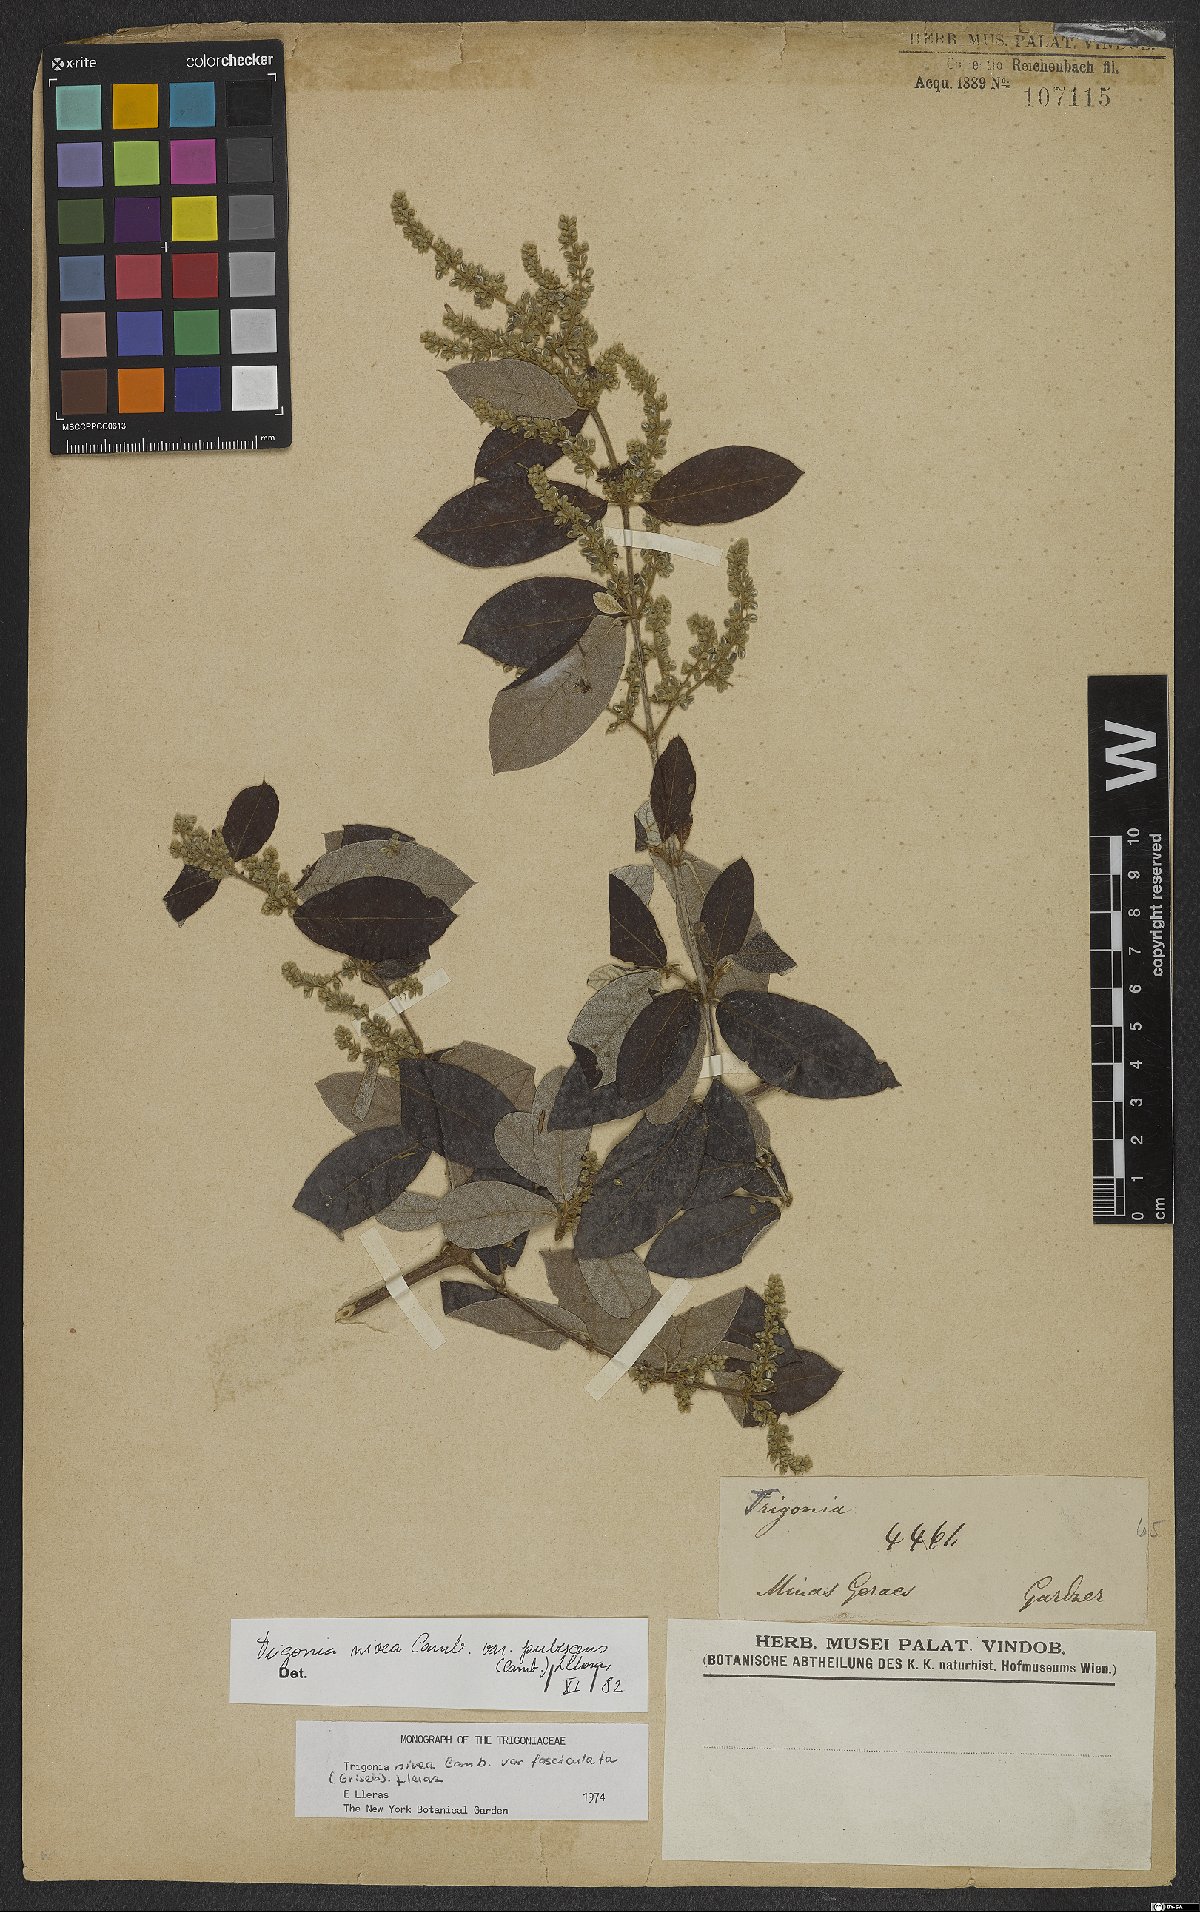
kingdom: Plantae
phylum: Tracheophyta
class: Magnoliopsida
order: Malpighiales
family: Trigoniaceae
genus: Trigonia
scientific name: Trigonia nivea
